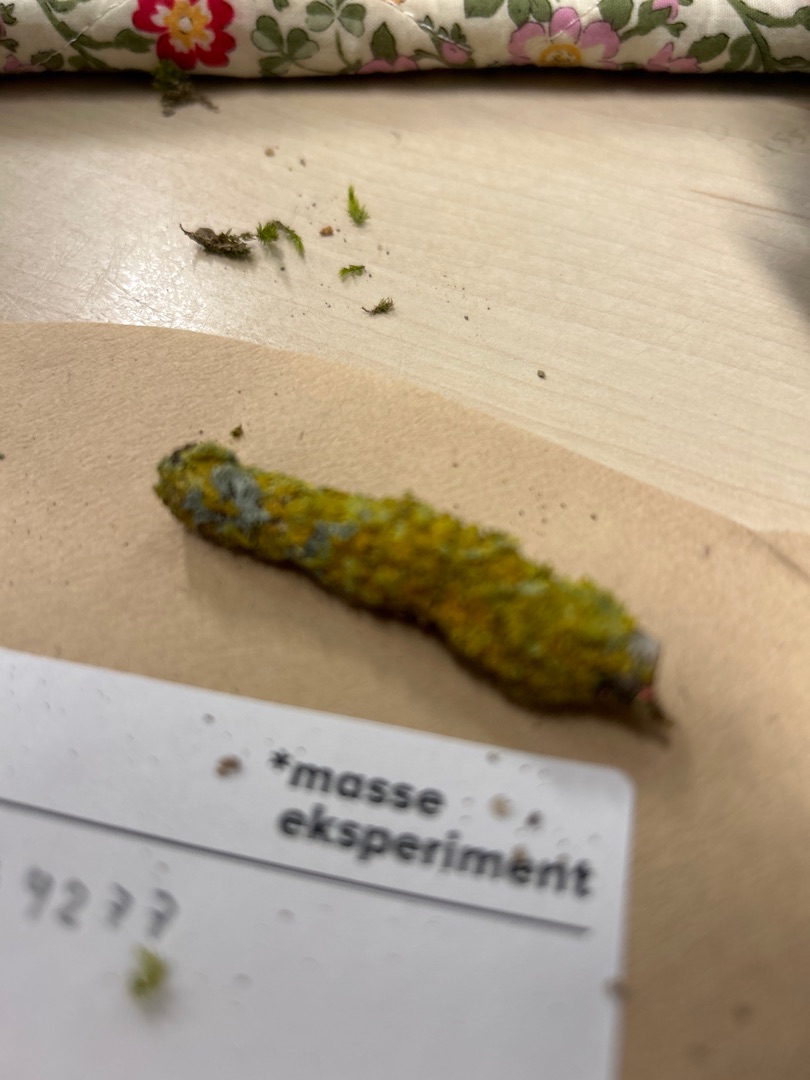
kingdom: Fungi
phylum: Ascomycota
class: Lecanoromycetes
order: Teloschistales
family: Teloschistaceae
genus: Xanthoria
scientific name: Xanthoria parietina
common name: Almindelig væggelav
